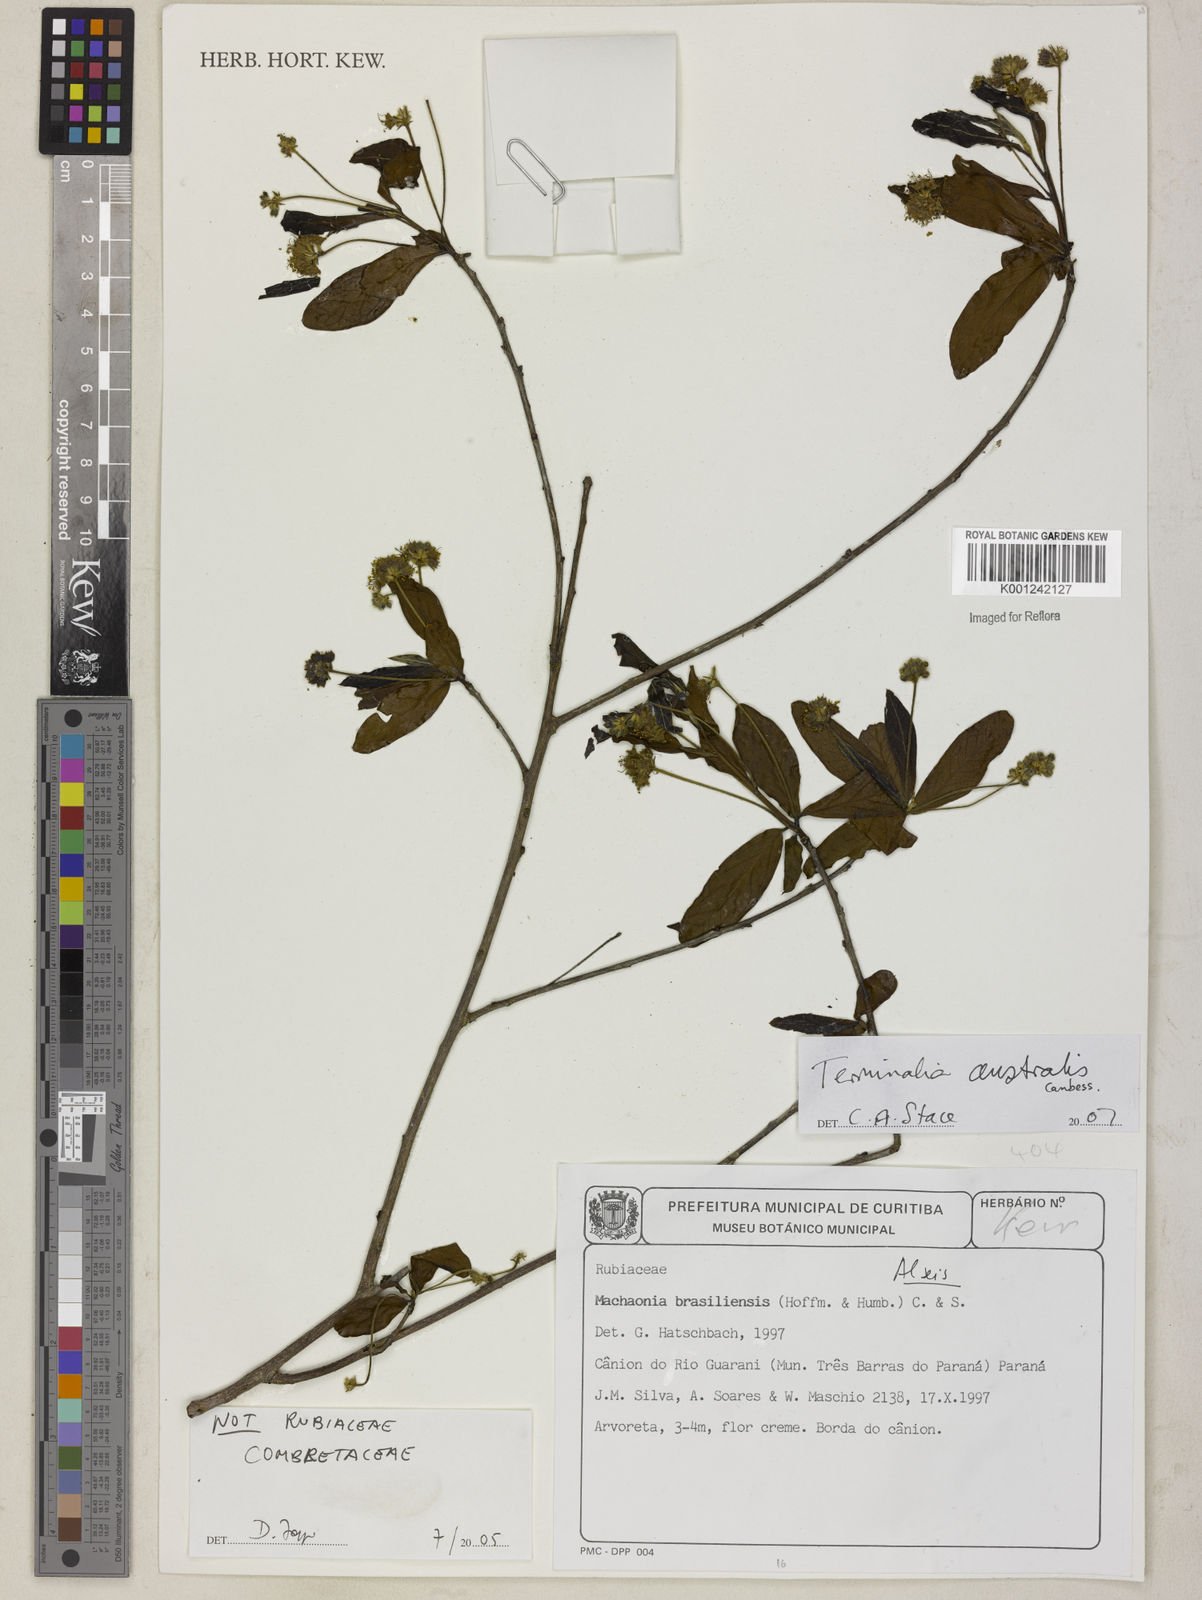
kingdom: Plantae
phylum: Tracheophyta
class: Magnoliopsida
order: Myrtales
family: Combretaceae
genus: Terminalia
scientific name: Terminalia australis
